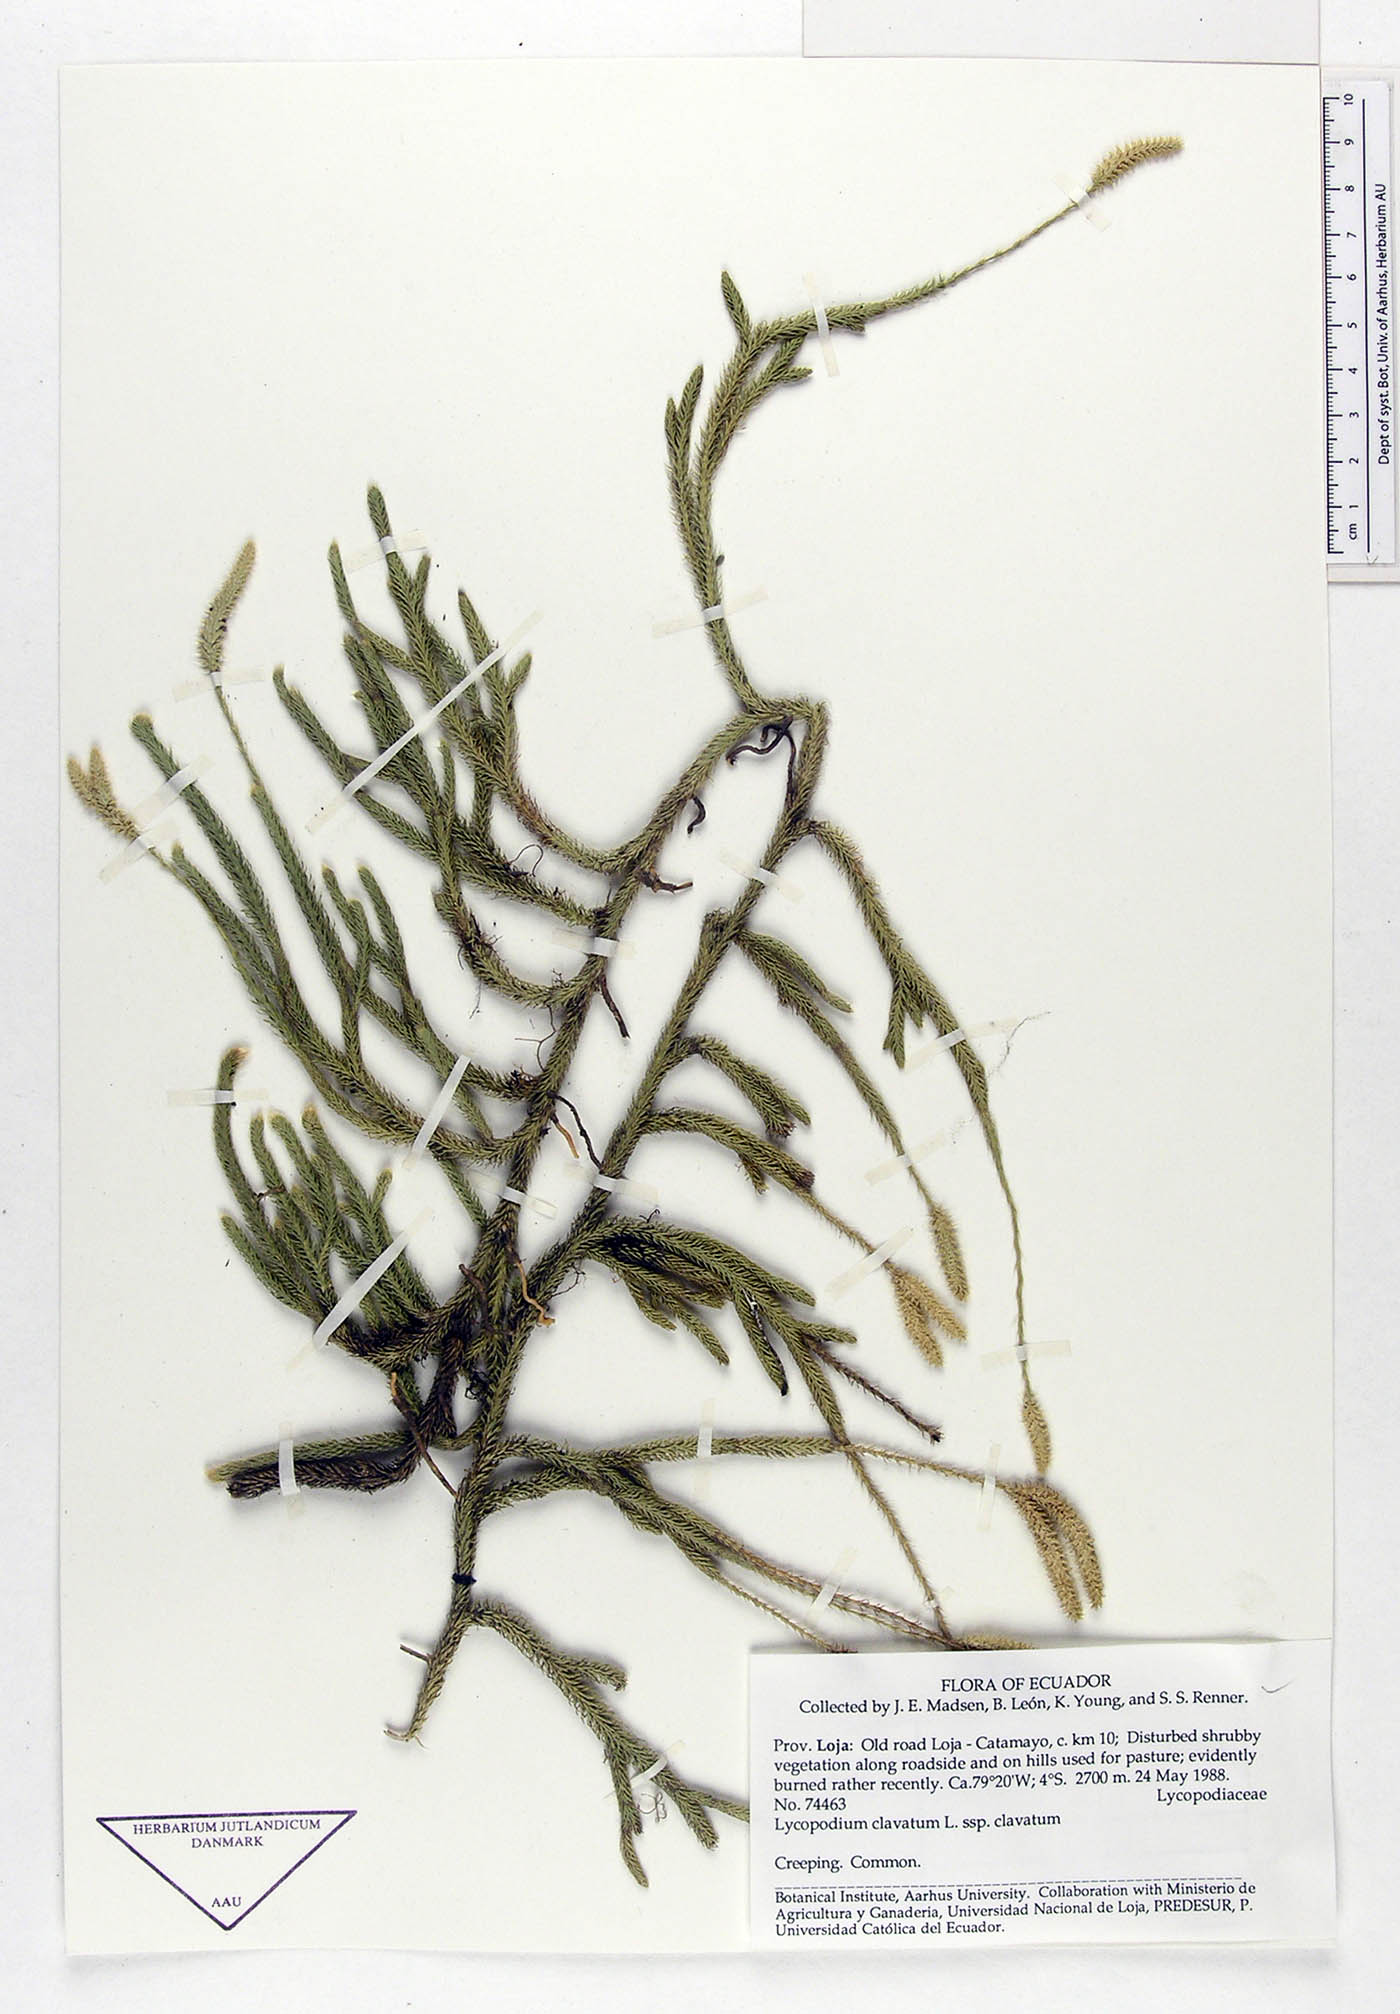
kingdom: Plantae
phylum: Tracheophyta
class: Lycopodiopsida
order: Lycopodiales
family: Lycopodiaceae
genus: Lycopodium
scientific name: Lycopodium clavatum
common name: Stag's-horn clubmoss
